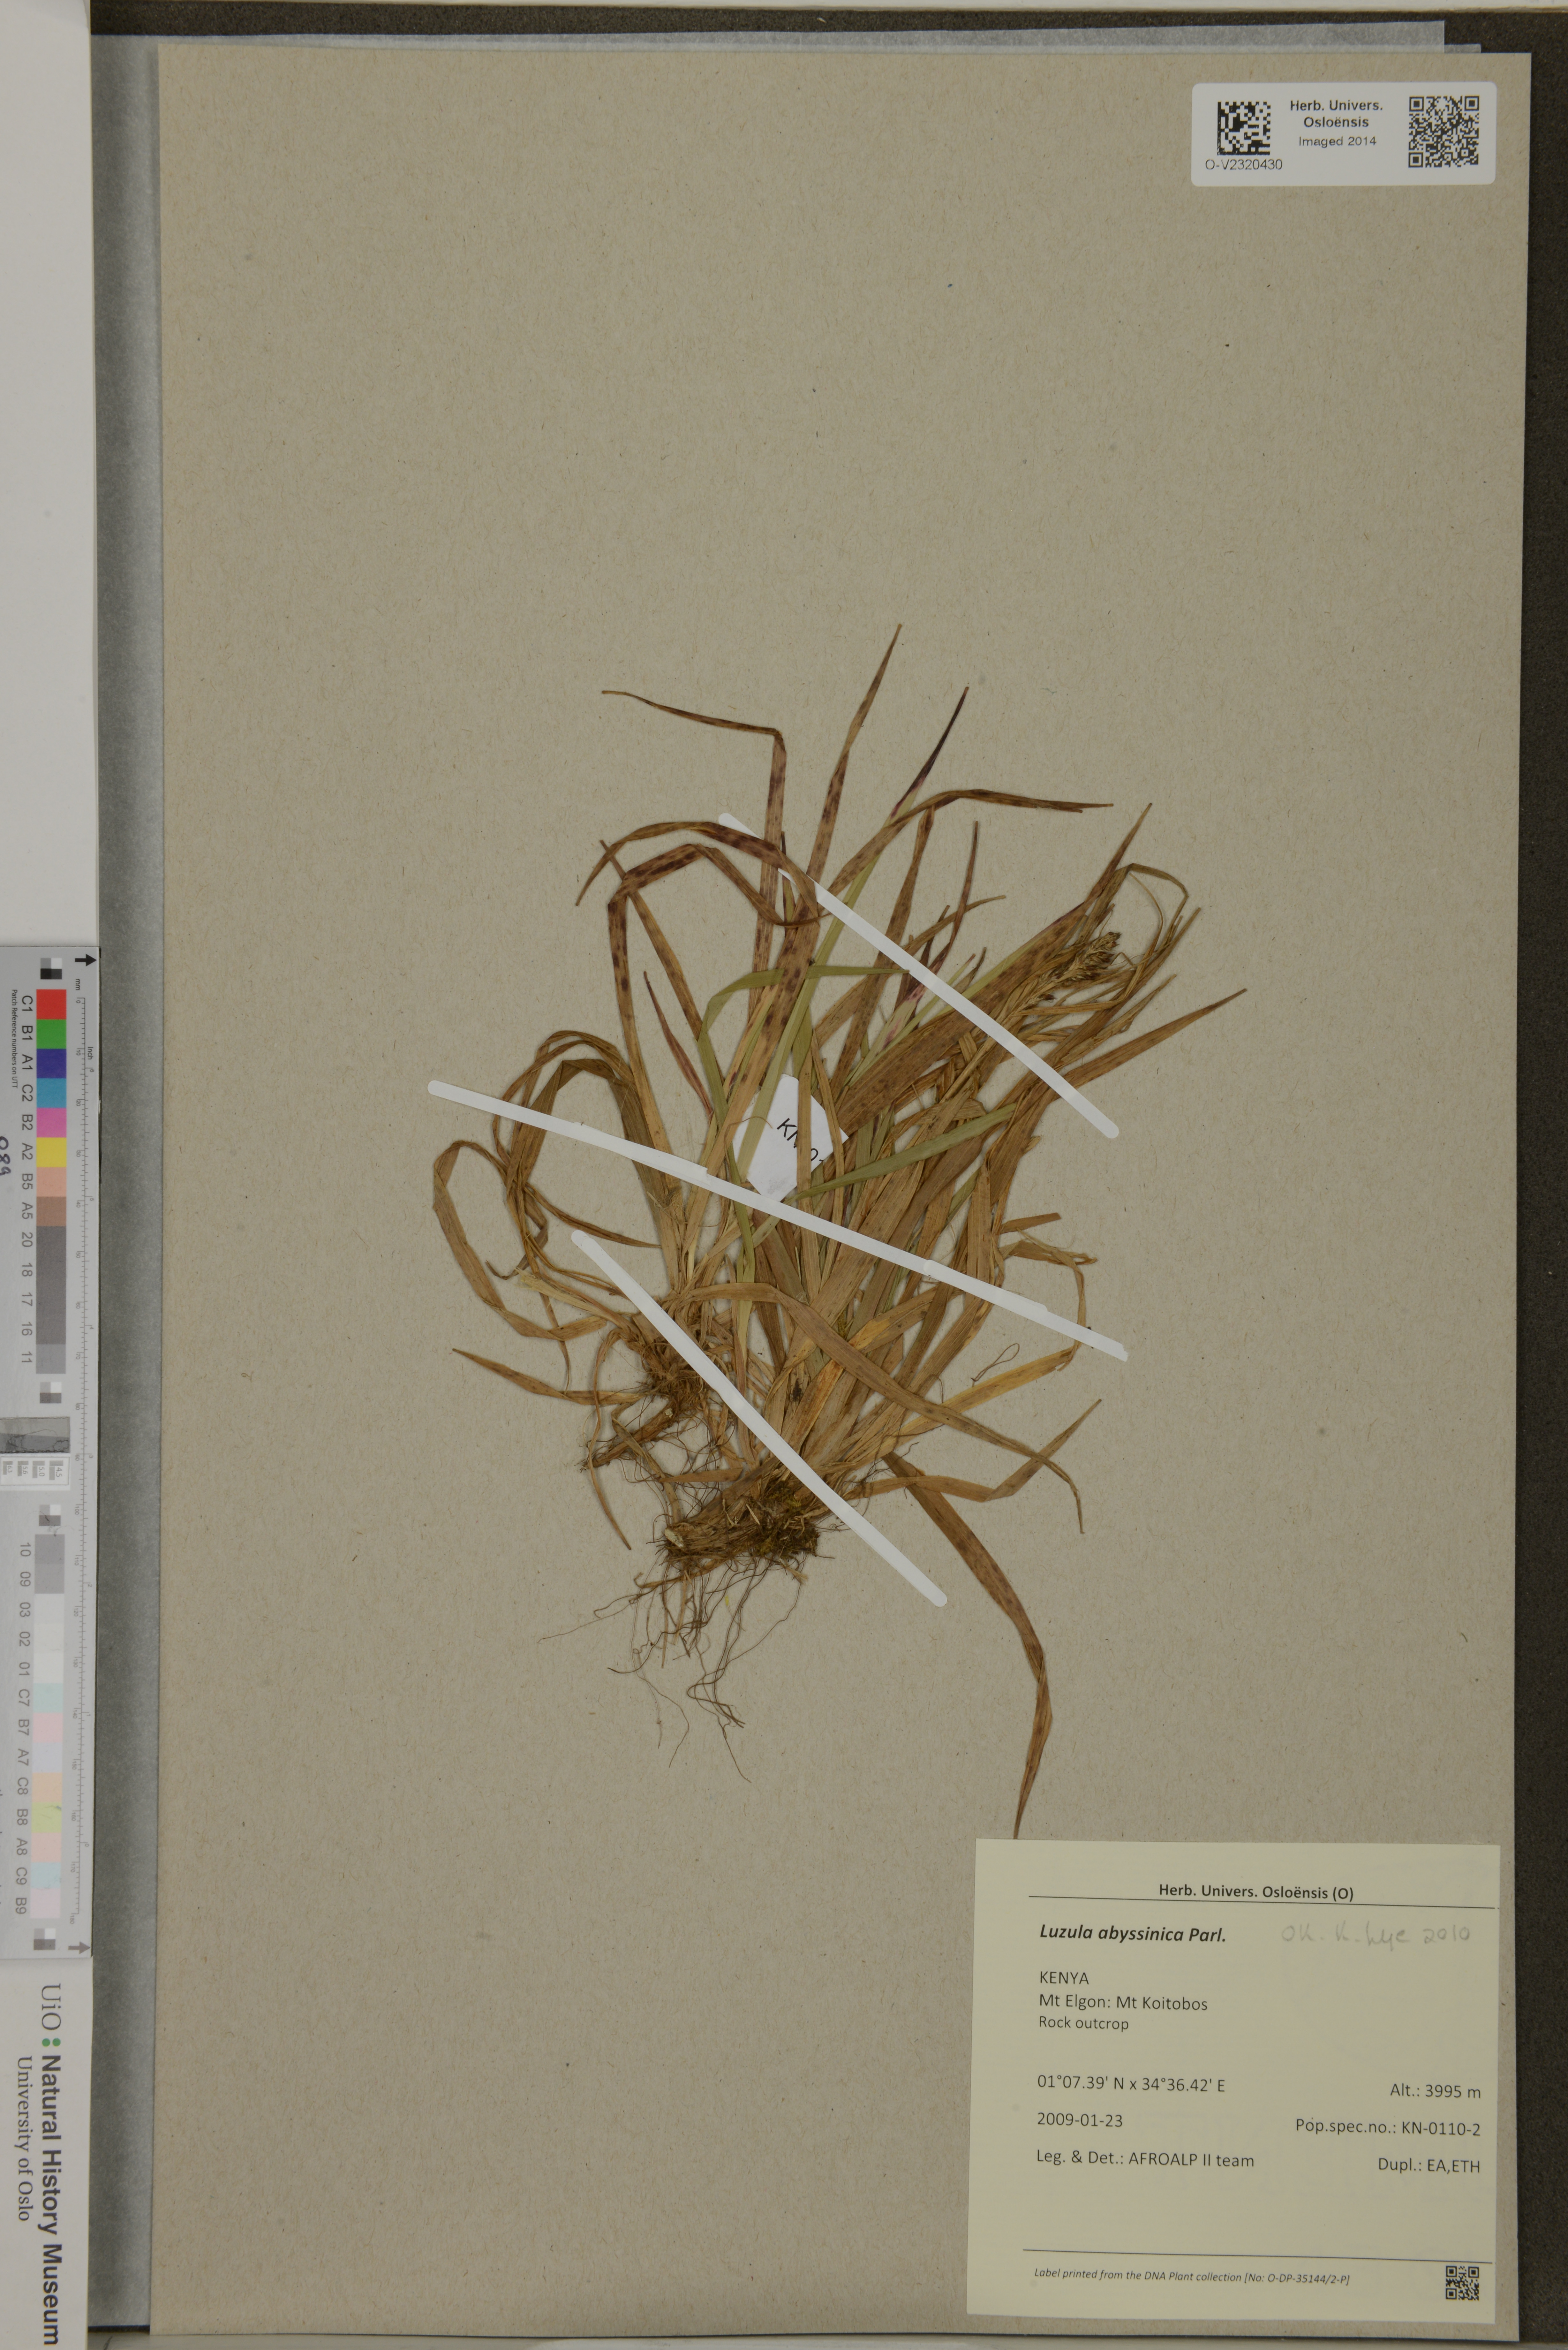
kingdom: Plantae
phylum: Tracheophyta
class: Liliopsida
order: Poales
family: Juncaceae
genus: Luzula
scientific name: Luzula abyssinica
